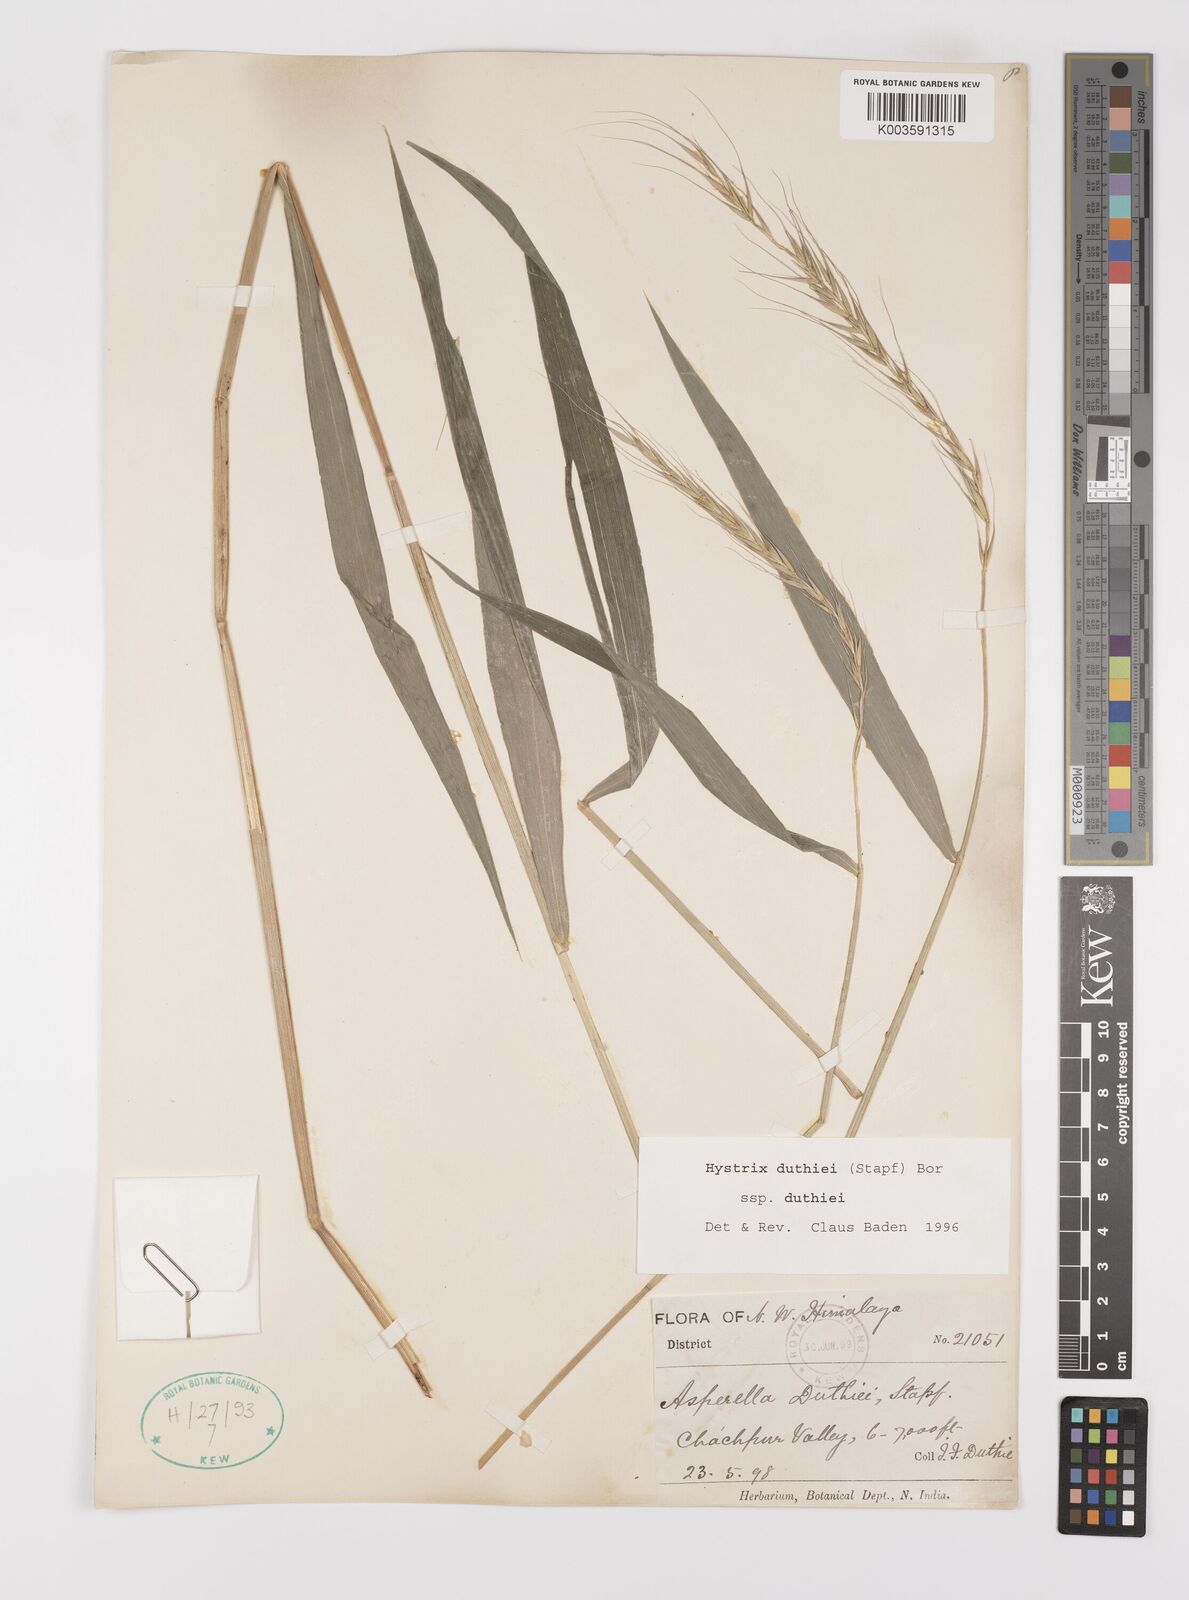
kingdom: Plantae
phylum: Tracheophyta
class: Liliopsida
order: Poales
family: Poaceae
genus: Leymus
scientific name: Leymus duthiei
